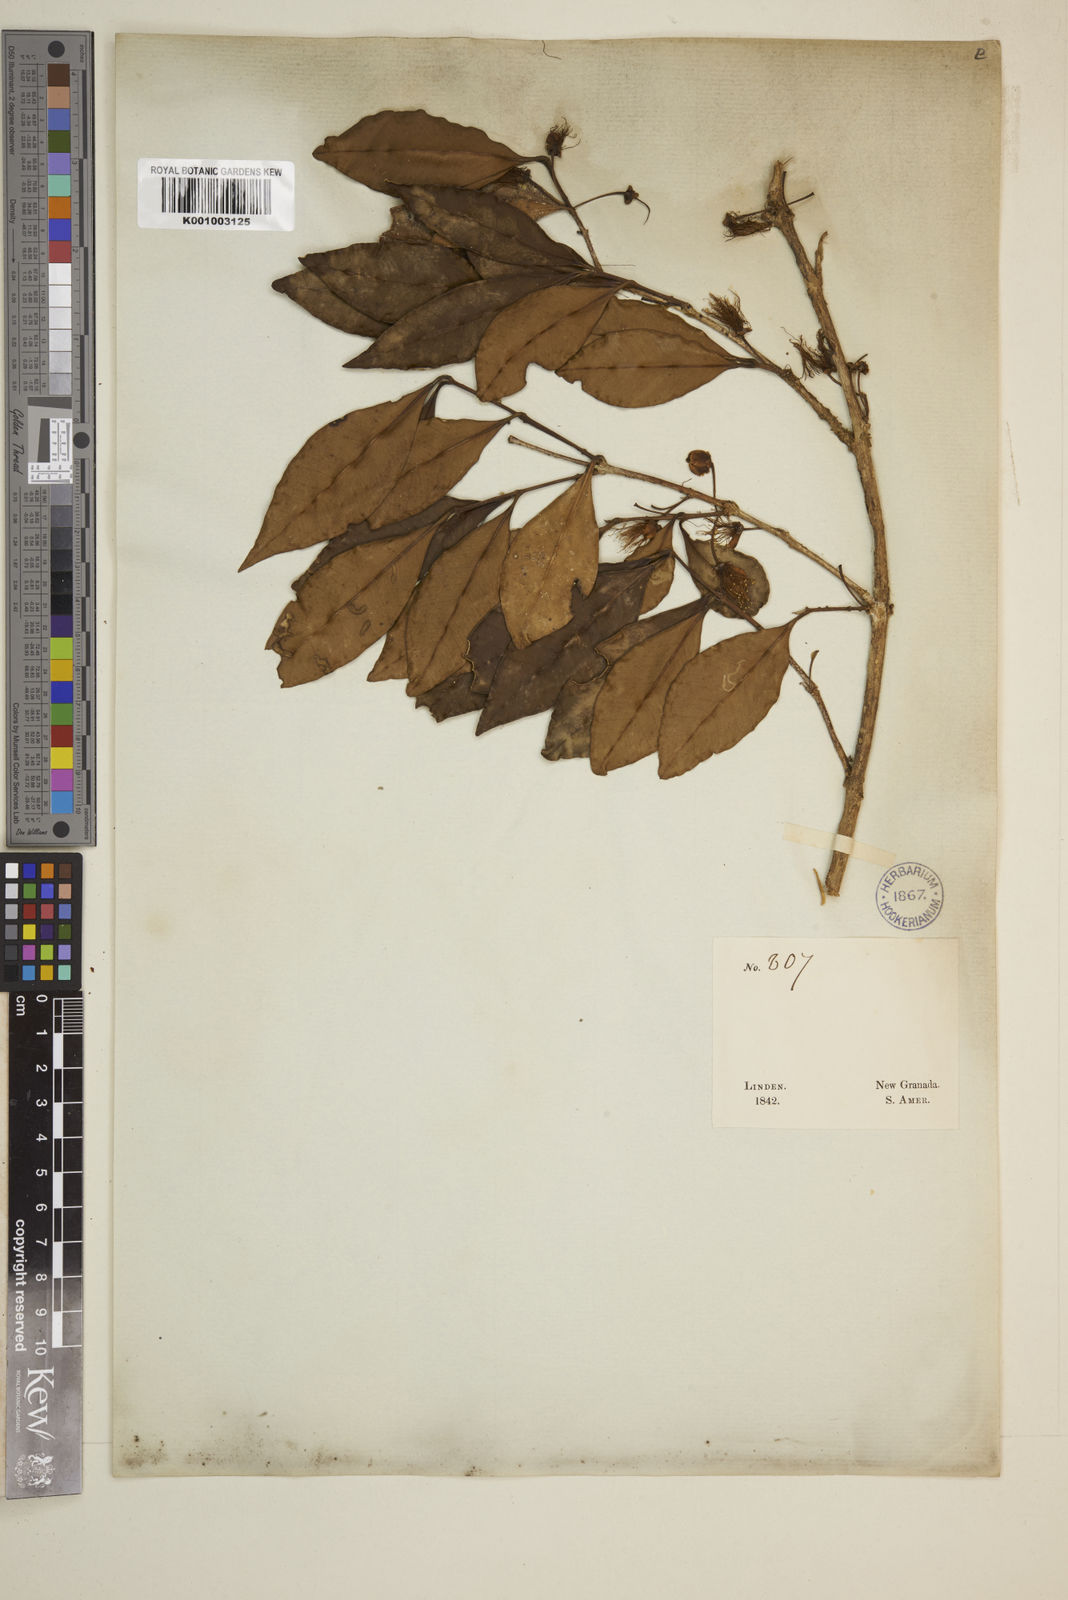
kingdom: Plantae
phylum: Tracheophyta
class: Magnoliopsida
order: Myrtales
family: Myrtaceae
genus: Eugenia
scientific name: Eugenia
